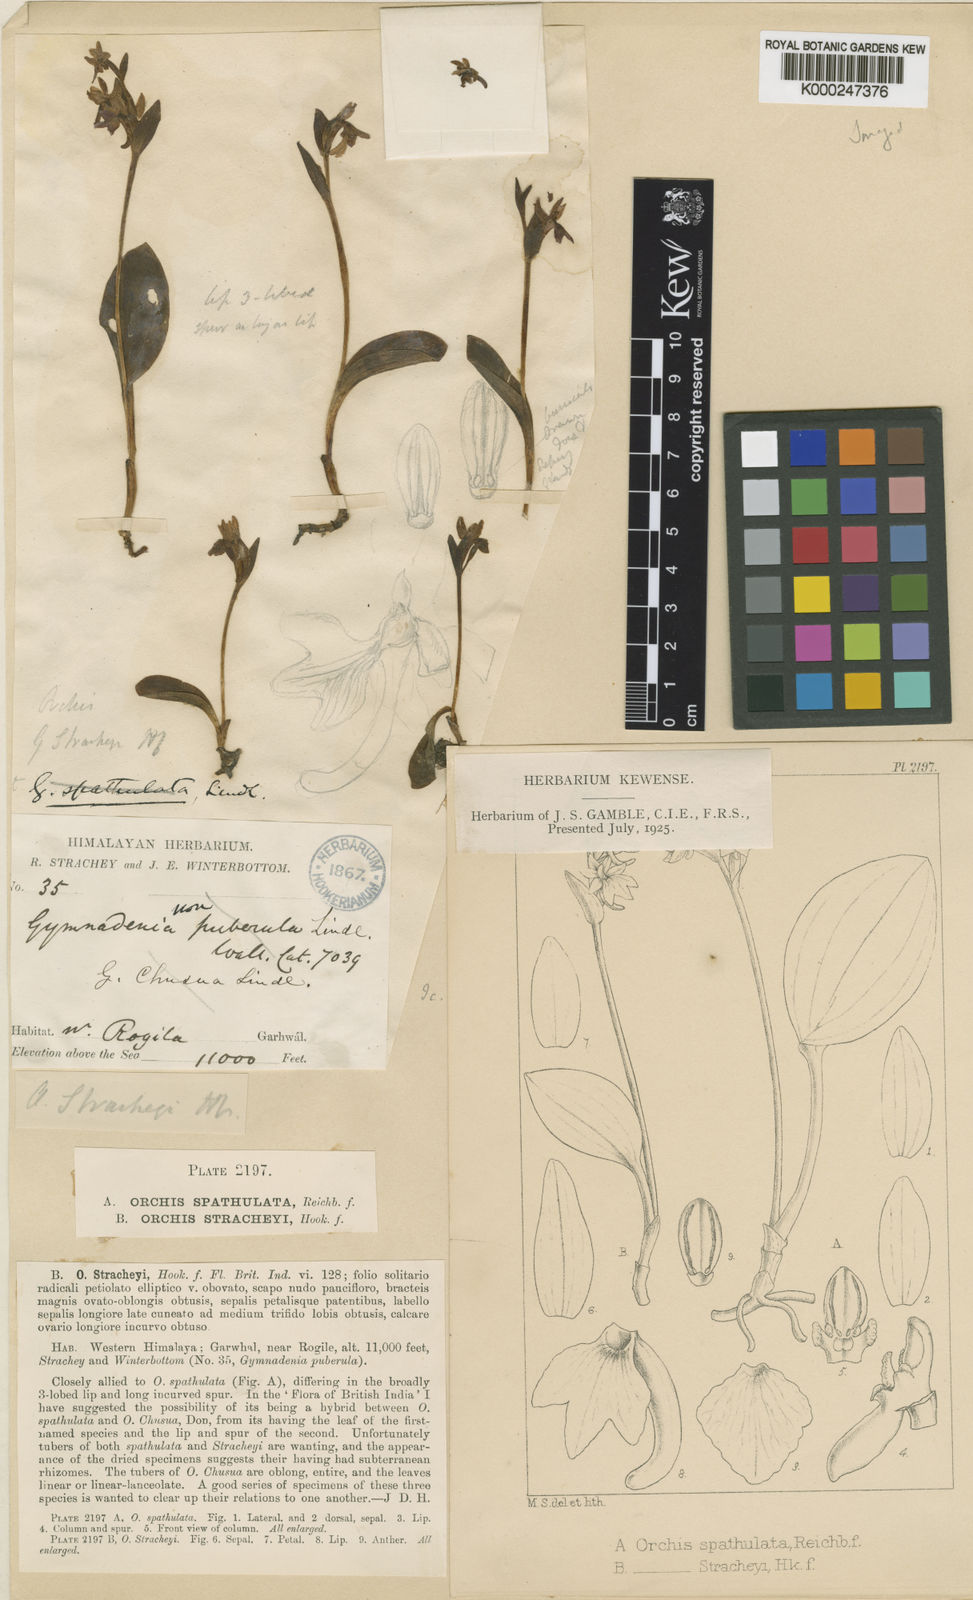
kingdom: Plantae
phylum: Tracheophyta
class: Liliopsida
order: Asparagales
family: Orchidaceae
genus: Galearis
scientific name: Galearis
